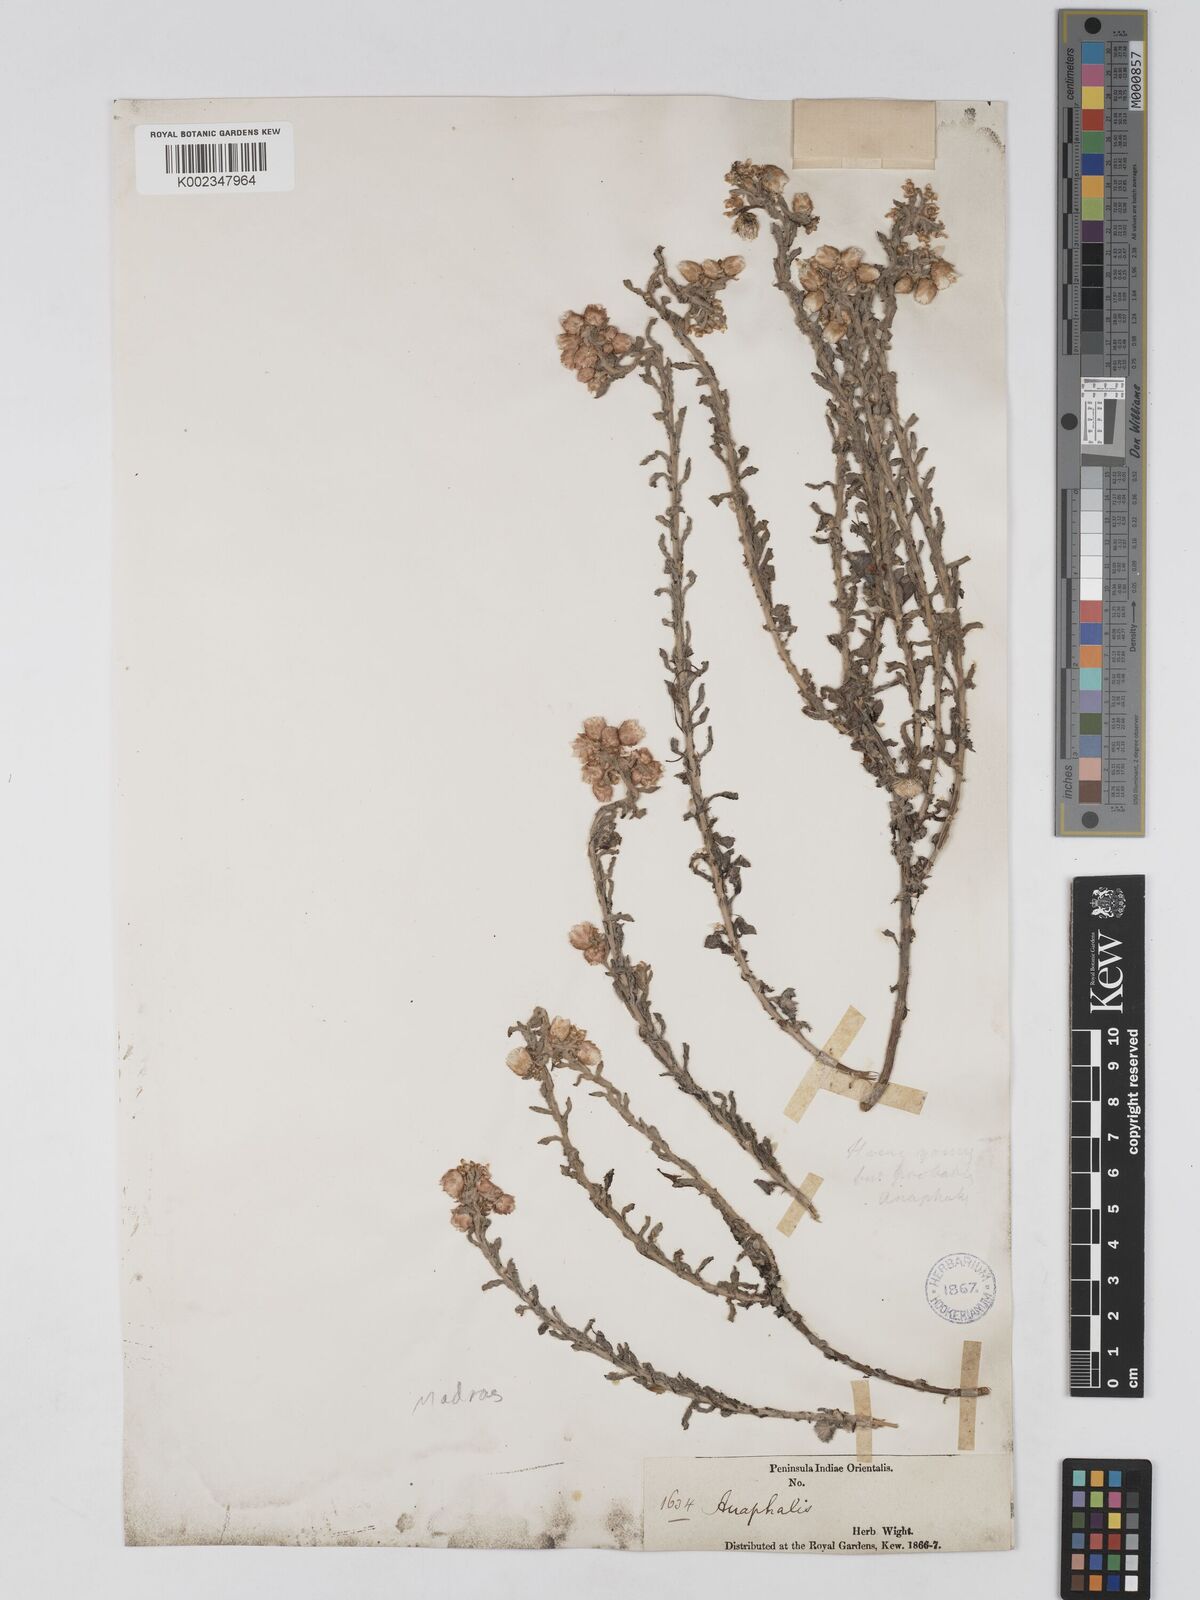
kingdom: Plantae
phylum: Tracheophyta
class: Magnoliopsida
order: Asterales
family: Asteraceae
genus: Anaphalis
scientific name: Anaphalis
